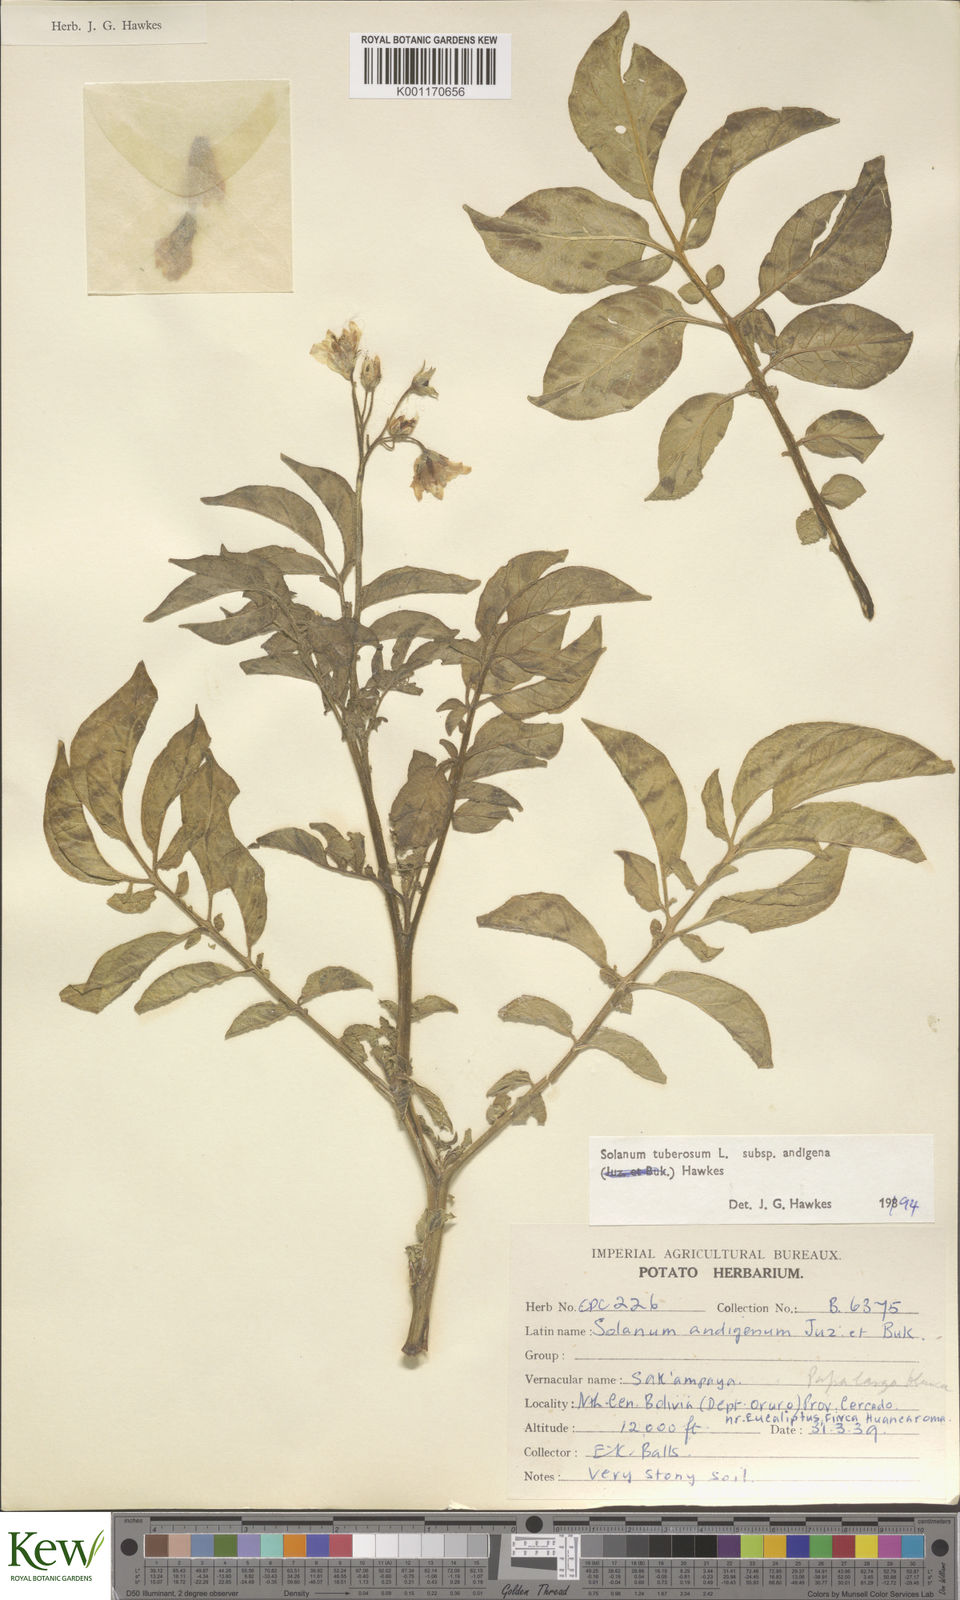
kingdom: Plantae
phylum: Tracheophyta
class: Magnoliopsida
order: Solanales
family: Solanaceae
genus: Solanum
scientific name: Solanum tuberosum
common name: Potato
